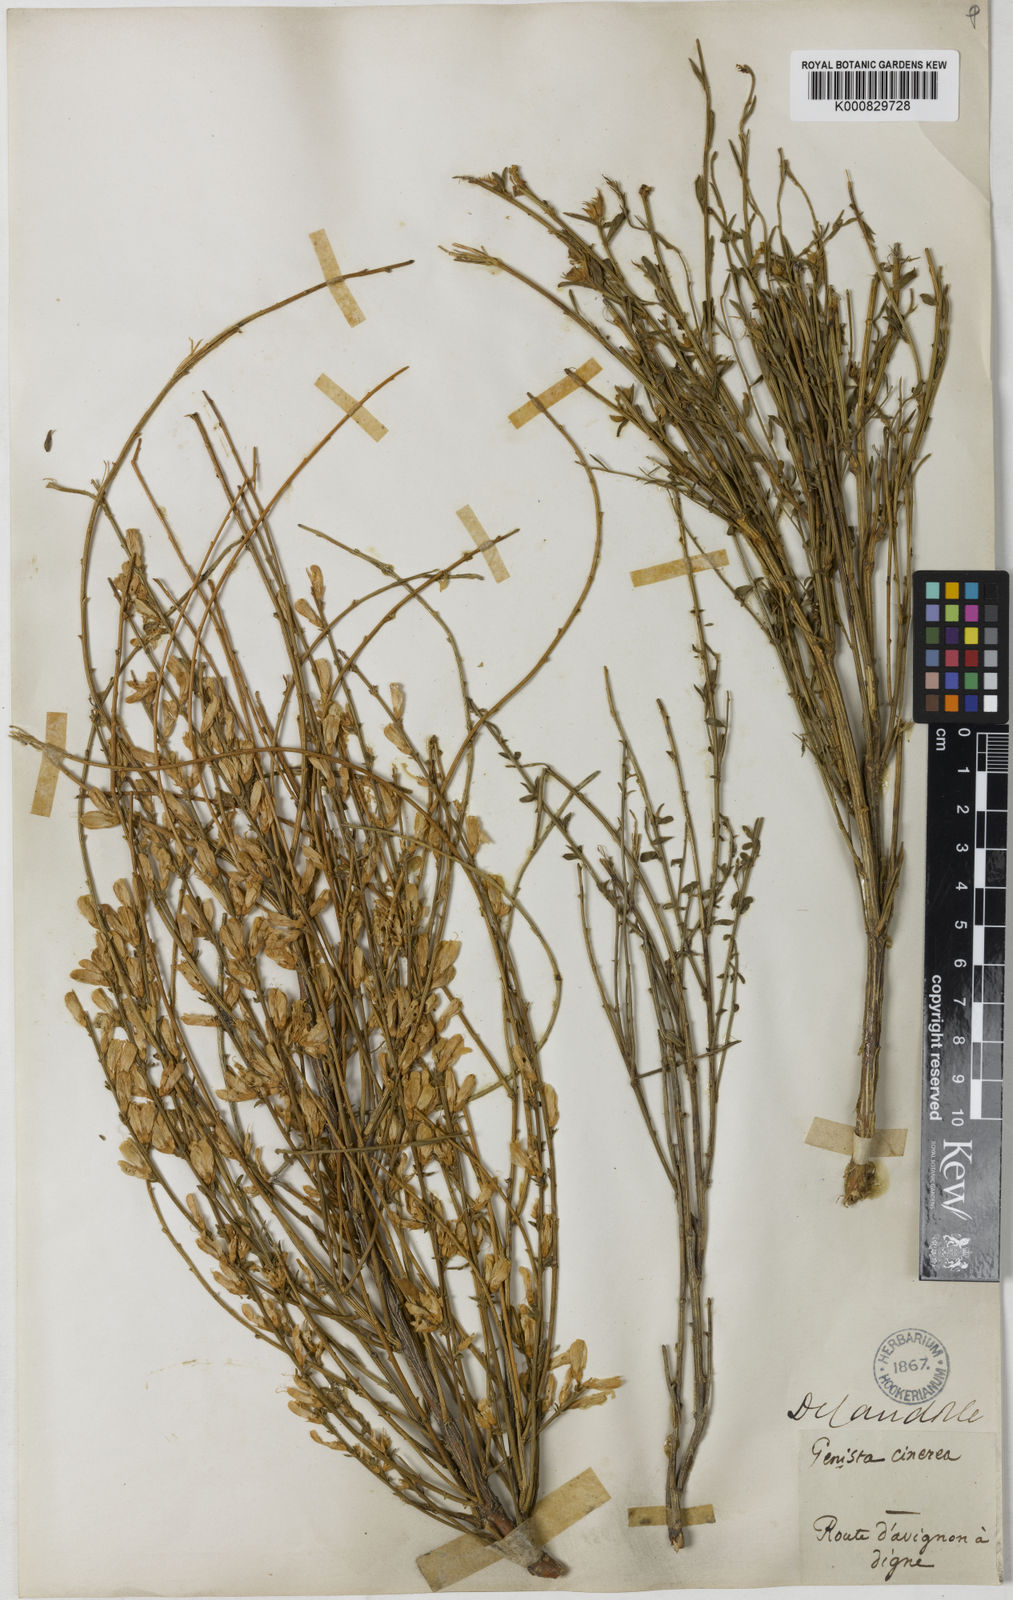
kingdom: Plantae
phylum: Tracheophyta
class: Magnoliopsida
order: Fabales
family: Fabaceae
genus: Genista
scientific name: Genista cinerea
